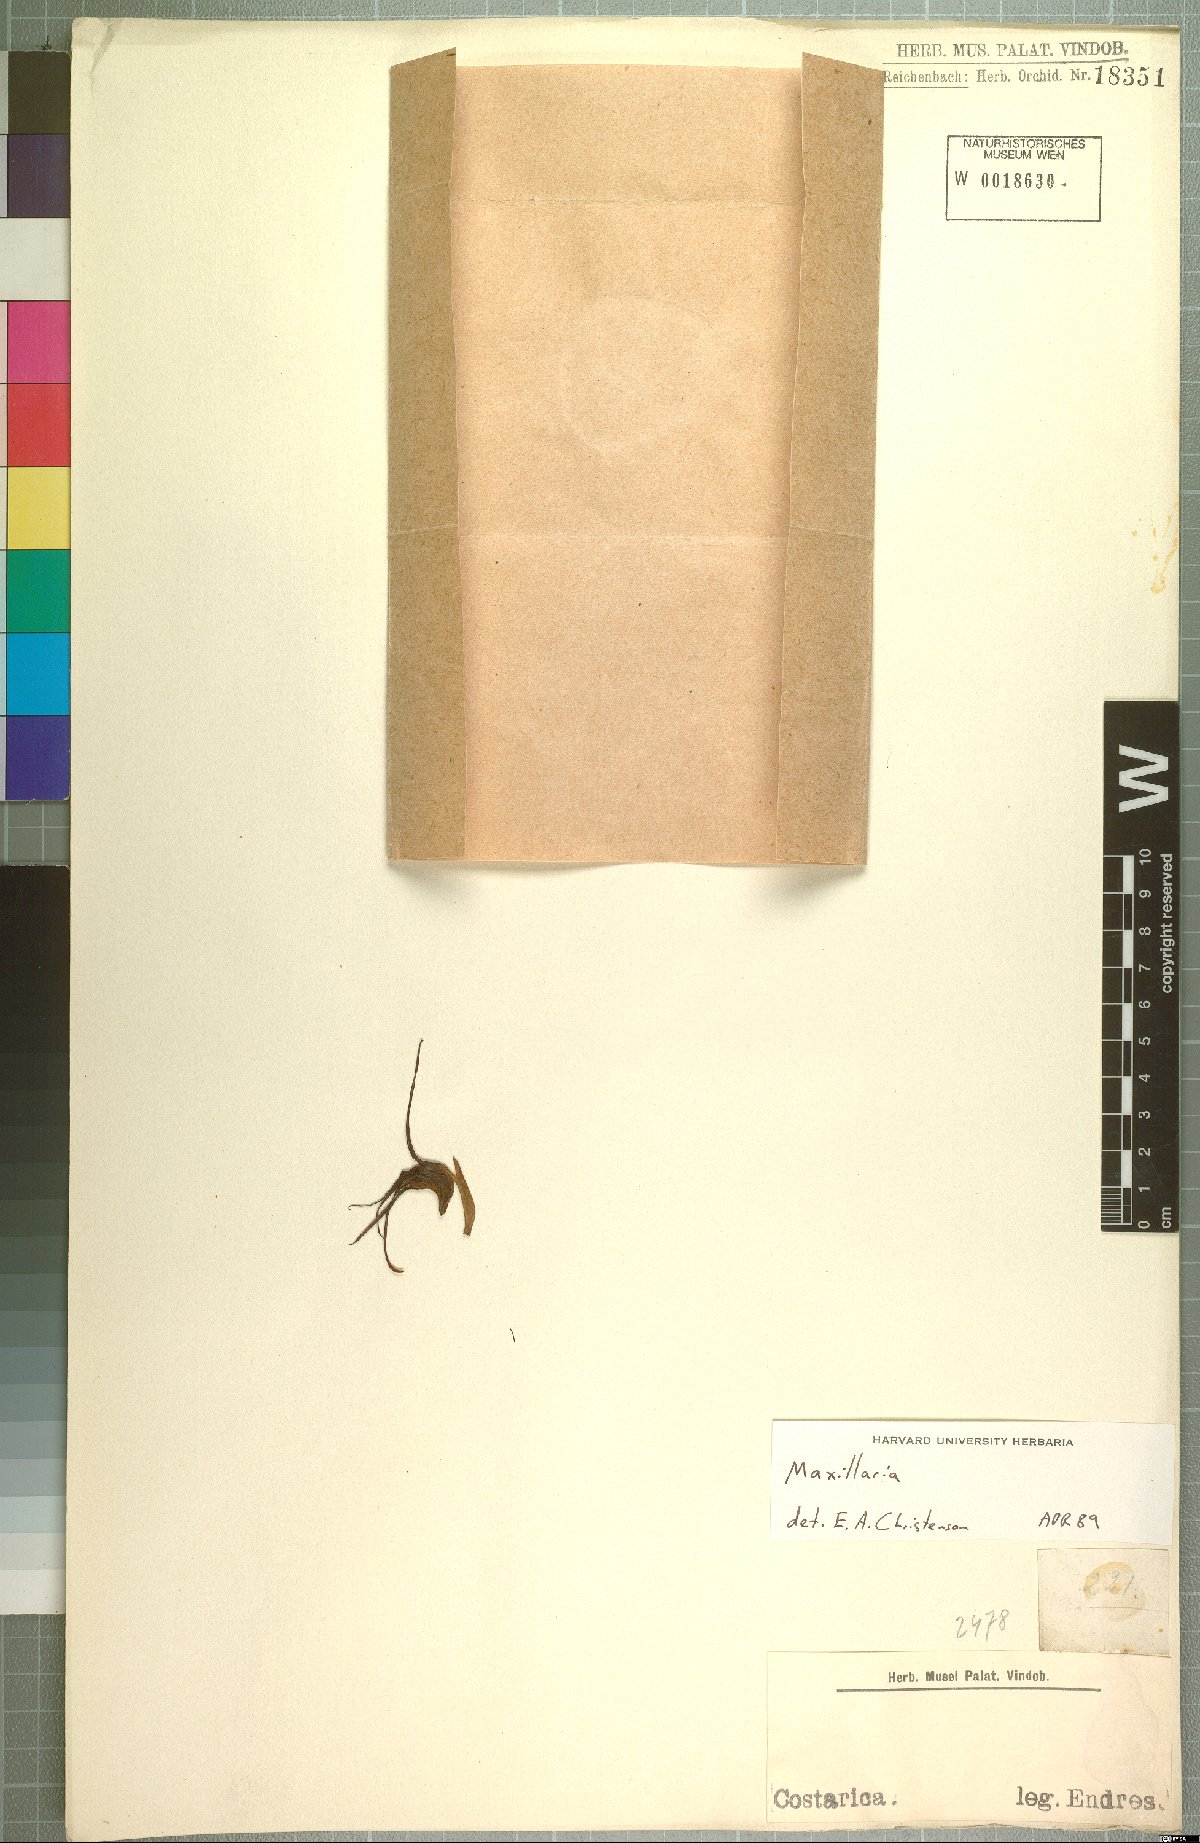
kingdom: Plantae
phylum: Tracheophyta
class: Liliopsida
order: Asparagales
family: Orchidaceae
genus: Maxillaria
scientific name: Maxillaria
